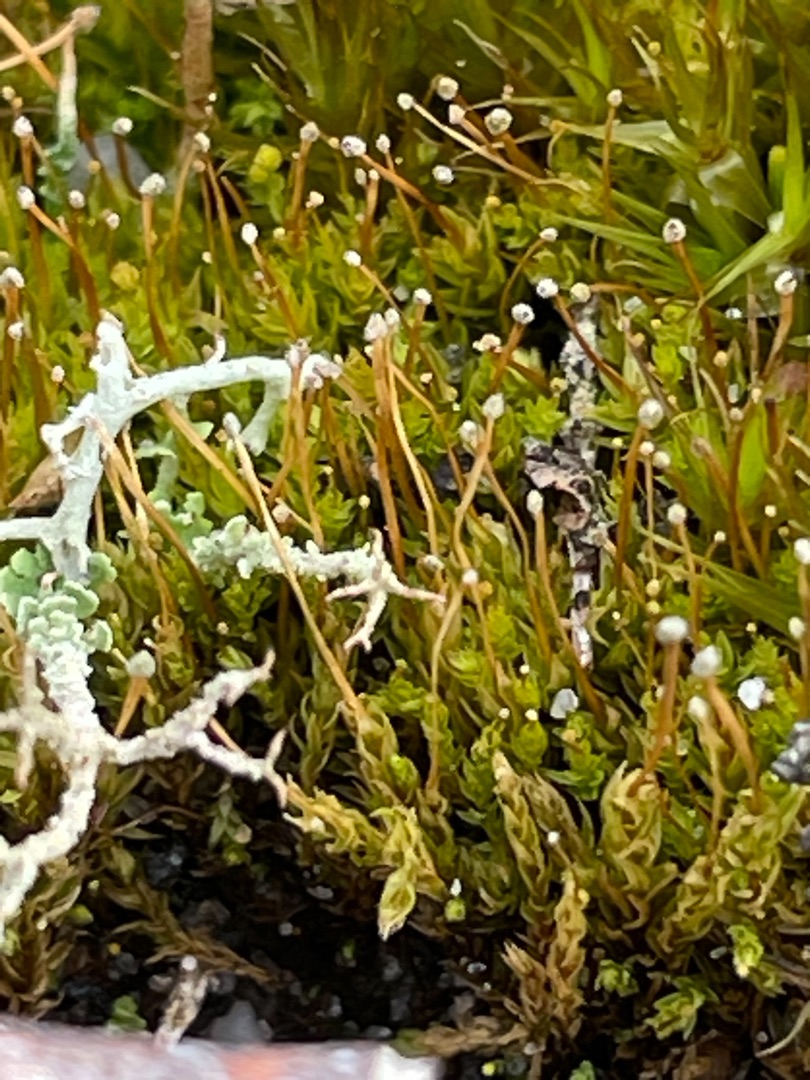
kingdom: Plantae
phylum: Bryophyta
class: Bryopsida
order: Aulacomniales
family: Aulacomniaceae
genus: Aulacomnium
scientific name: Aulacomnium androgynum
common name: Kugle-filtmos
